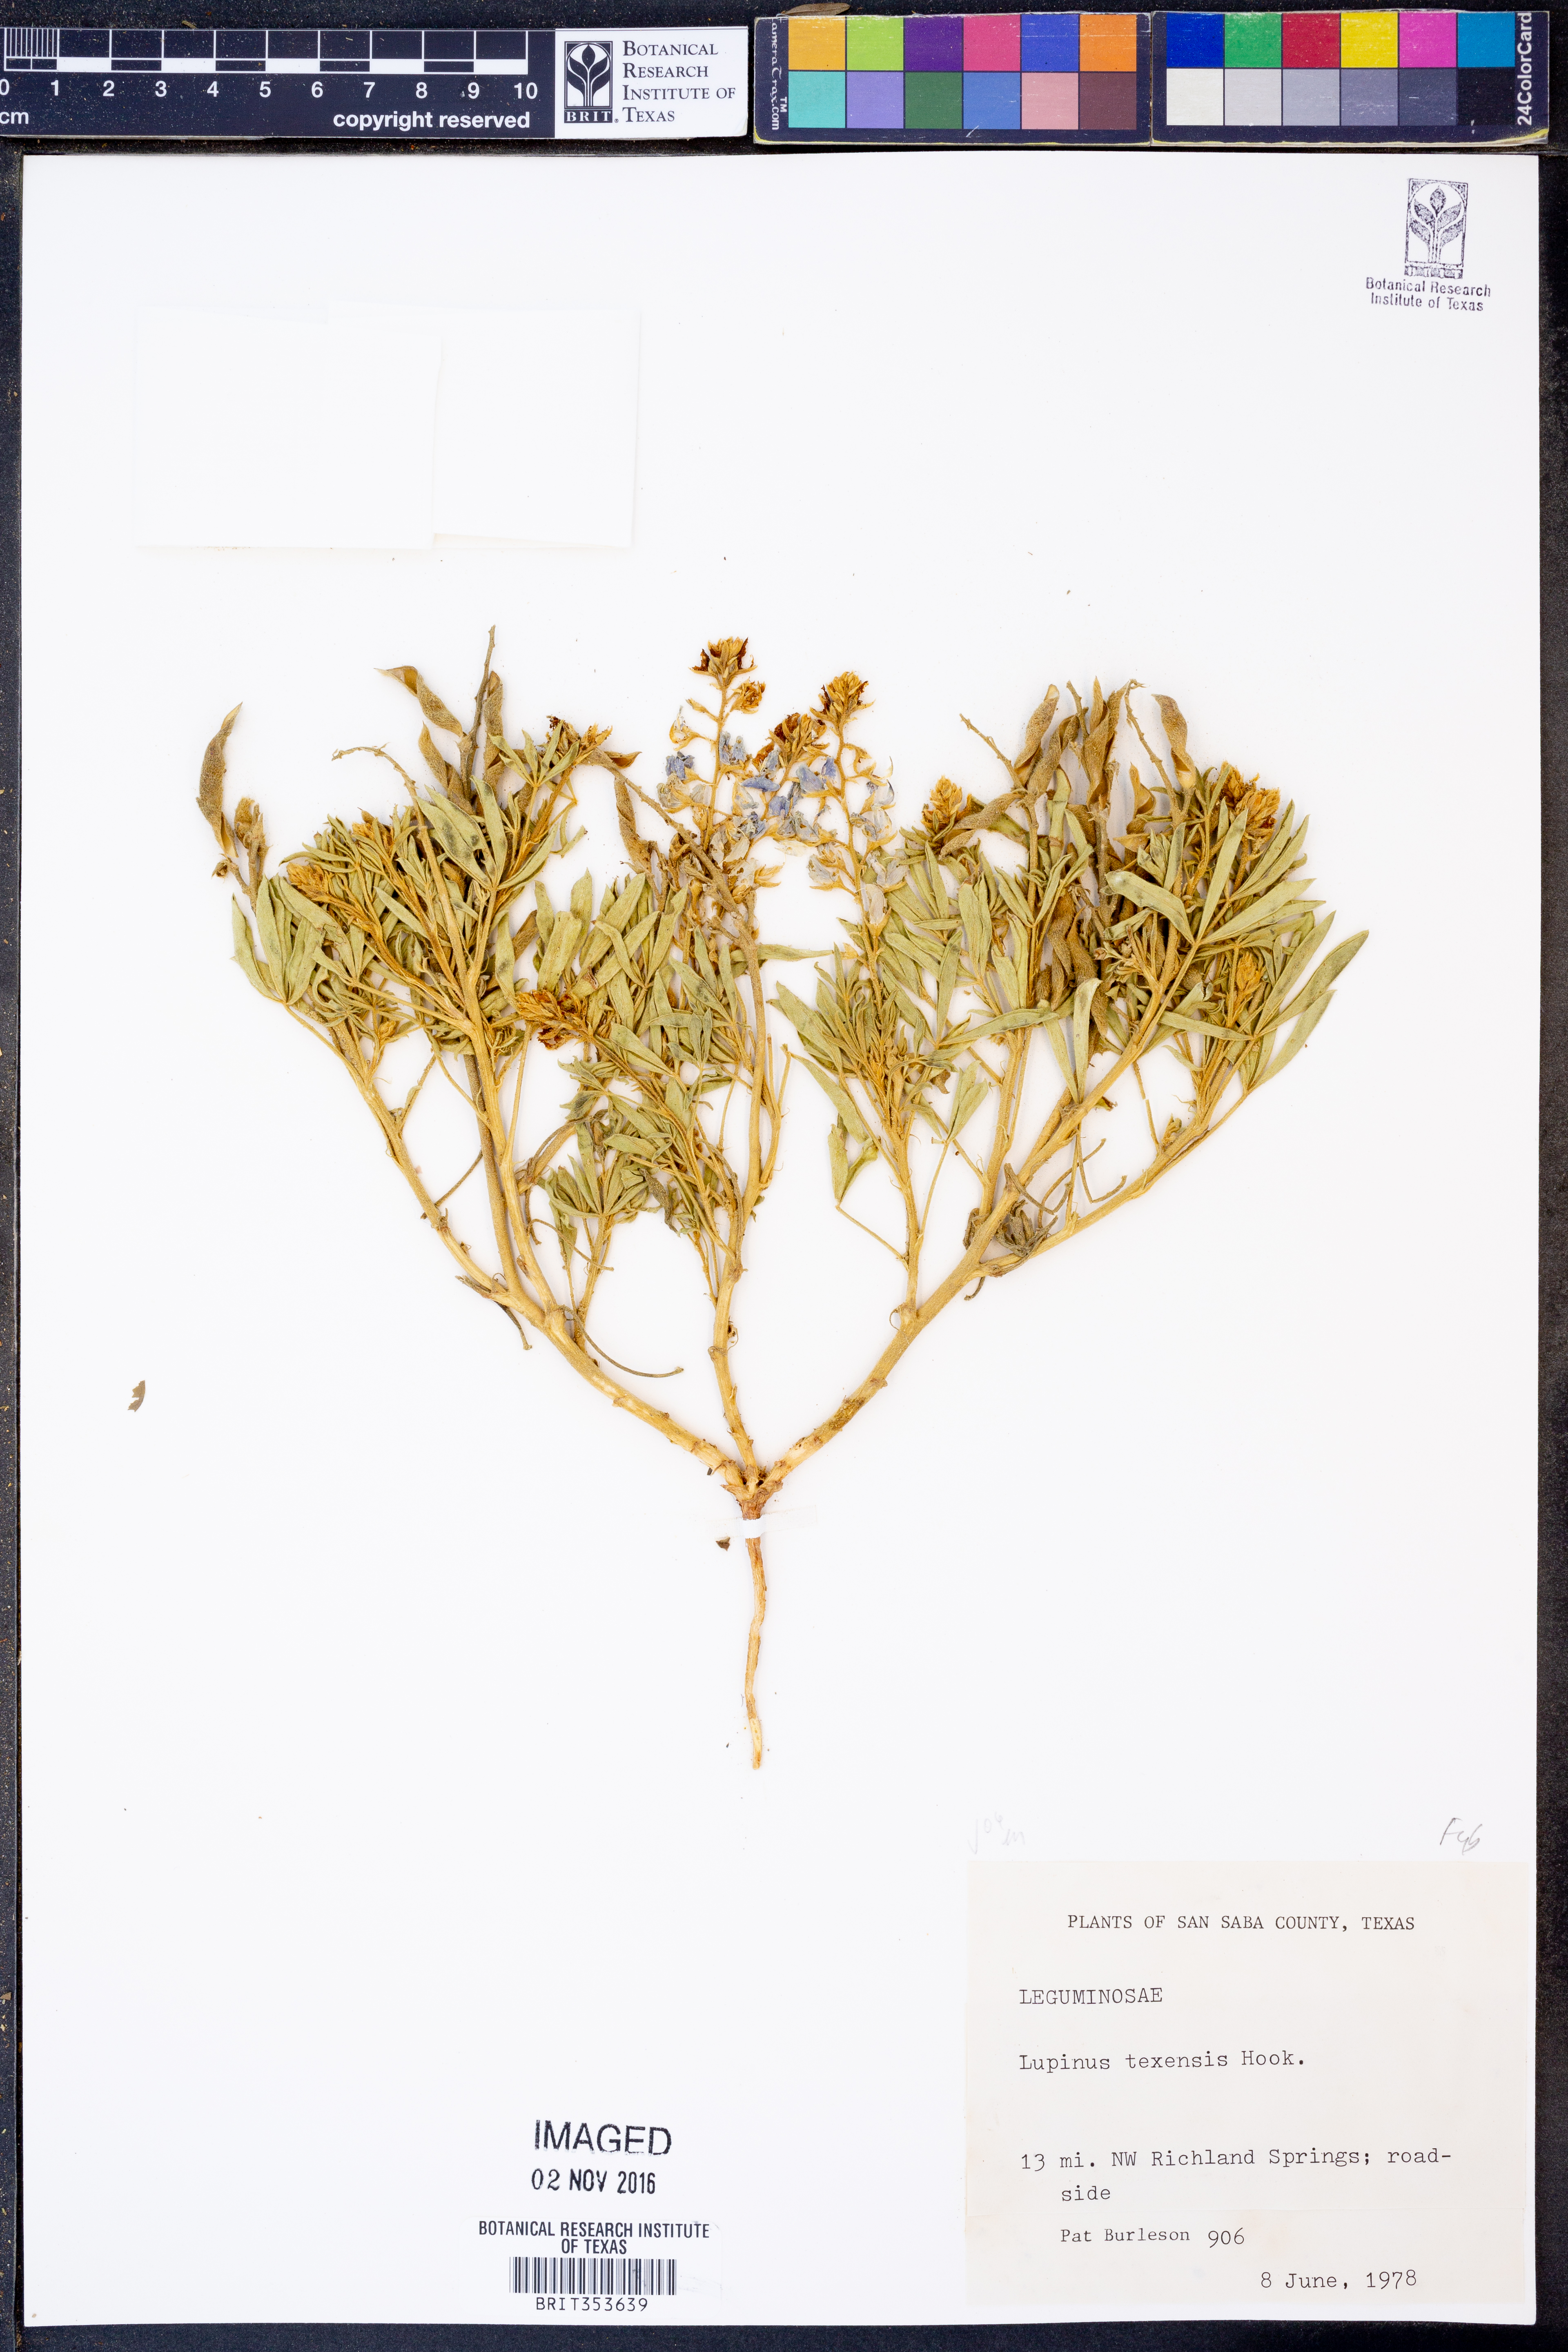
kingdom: Plantae
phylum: Tracheophyta
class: Magnoliopsida
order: Fabales
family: Fabaceae
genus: Lupinus
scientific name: Lupinus texensis
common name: Texas bluebonnet
